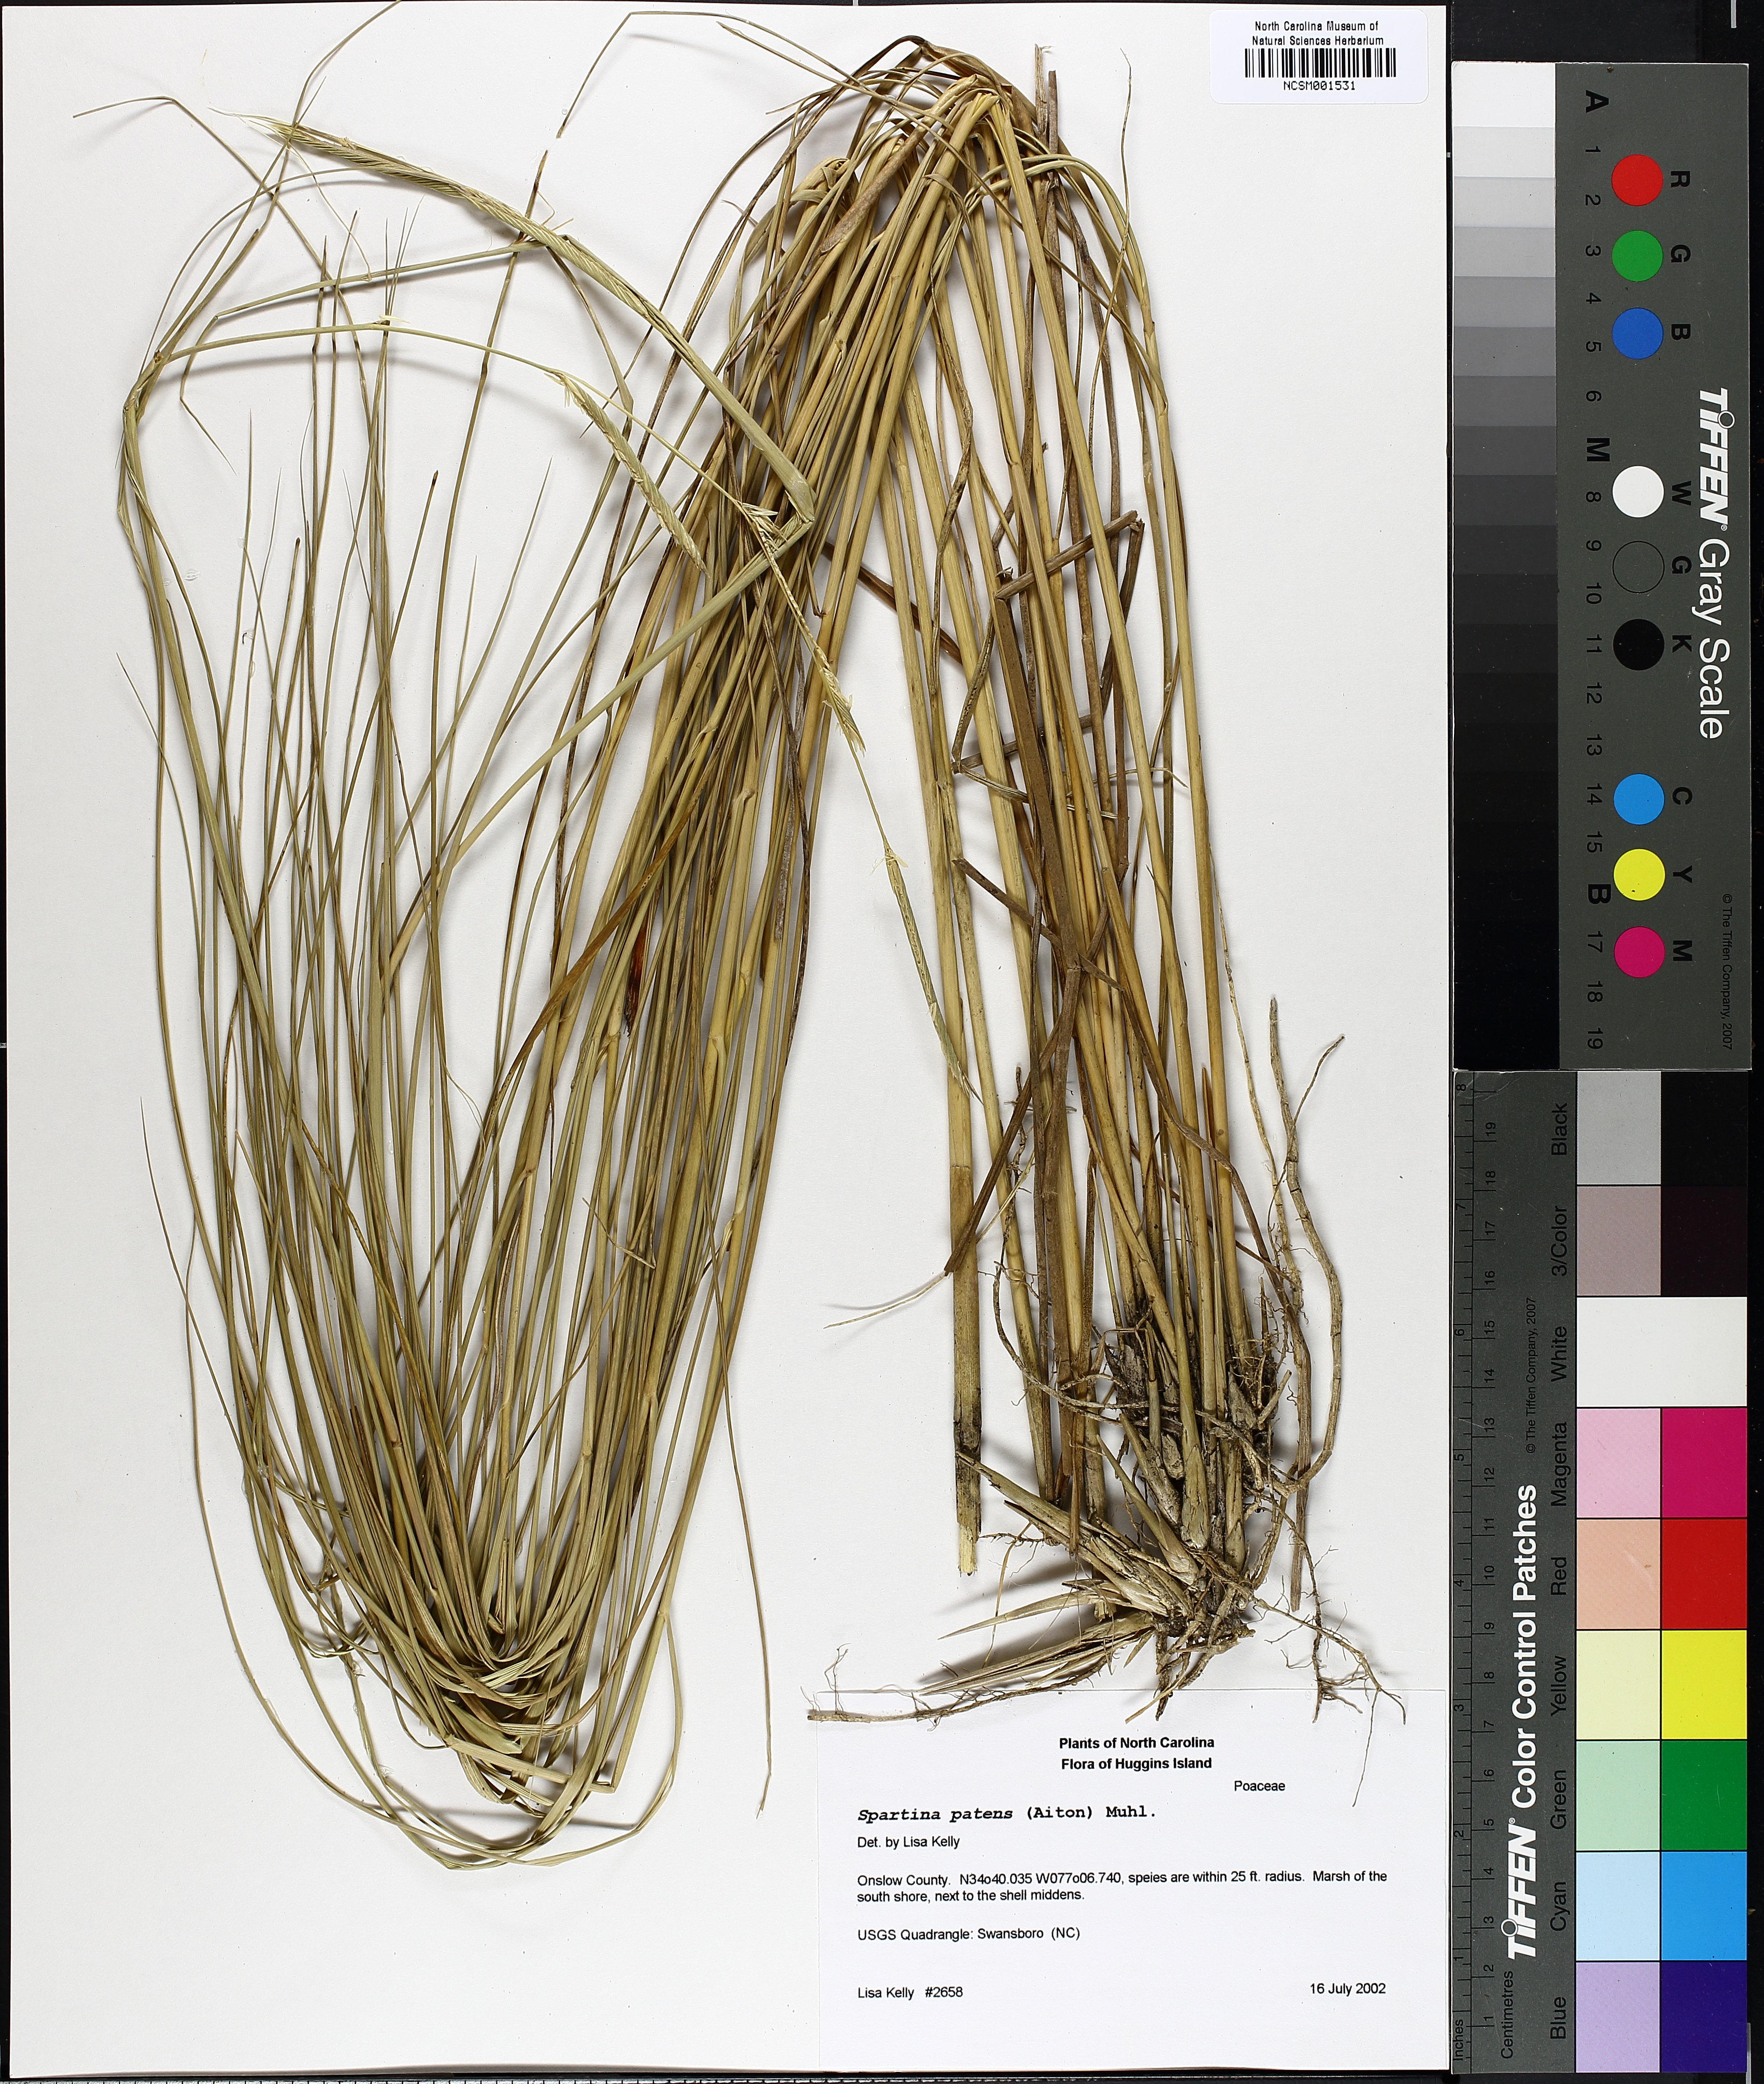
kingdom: Plantae
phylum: Tracheophyta
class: Liliopsida
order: Poales
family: Poaceae
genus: Sporobolus
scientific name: Sporobolus pumilus
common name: Highwater grass
